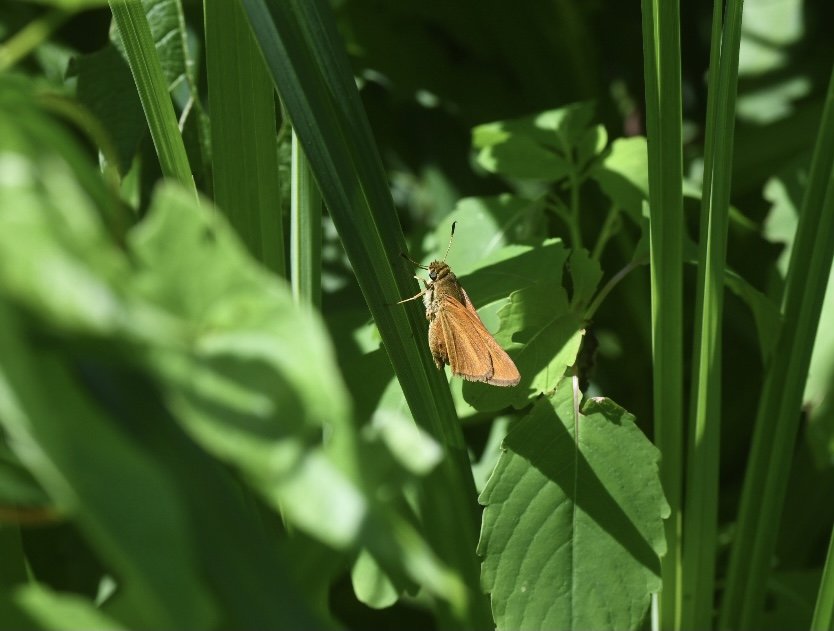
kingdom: Animalia
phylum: Arthropoda
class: Insecta
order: Lepidoptera
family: Hesperiidae
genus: Euphyes
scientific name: Euphyes dion
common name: Dion Skipper
